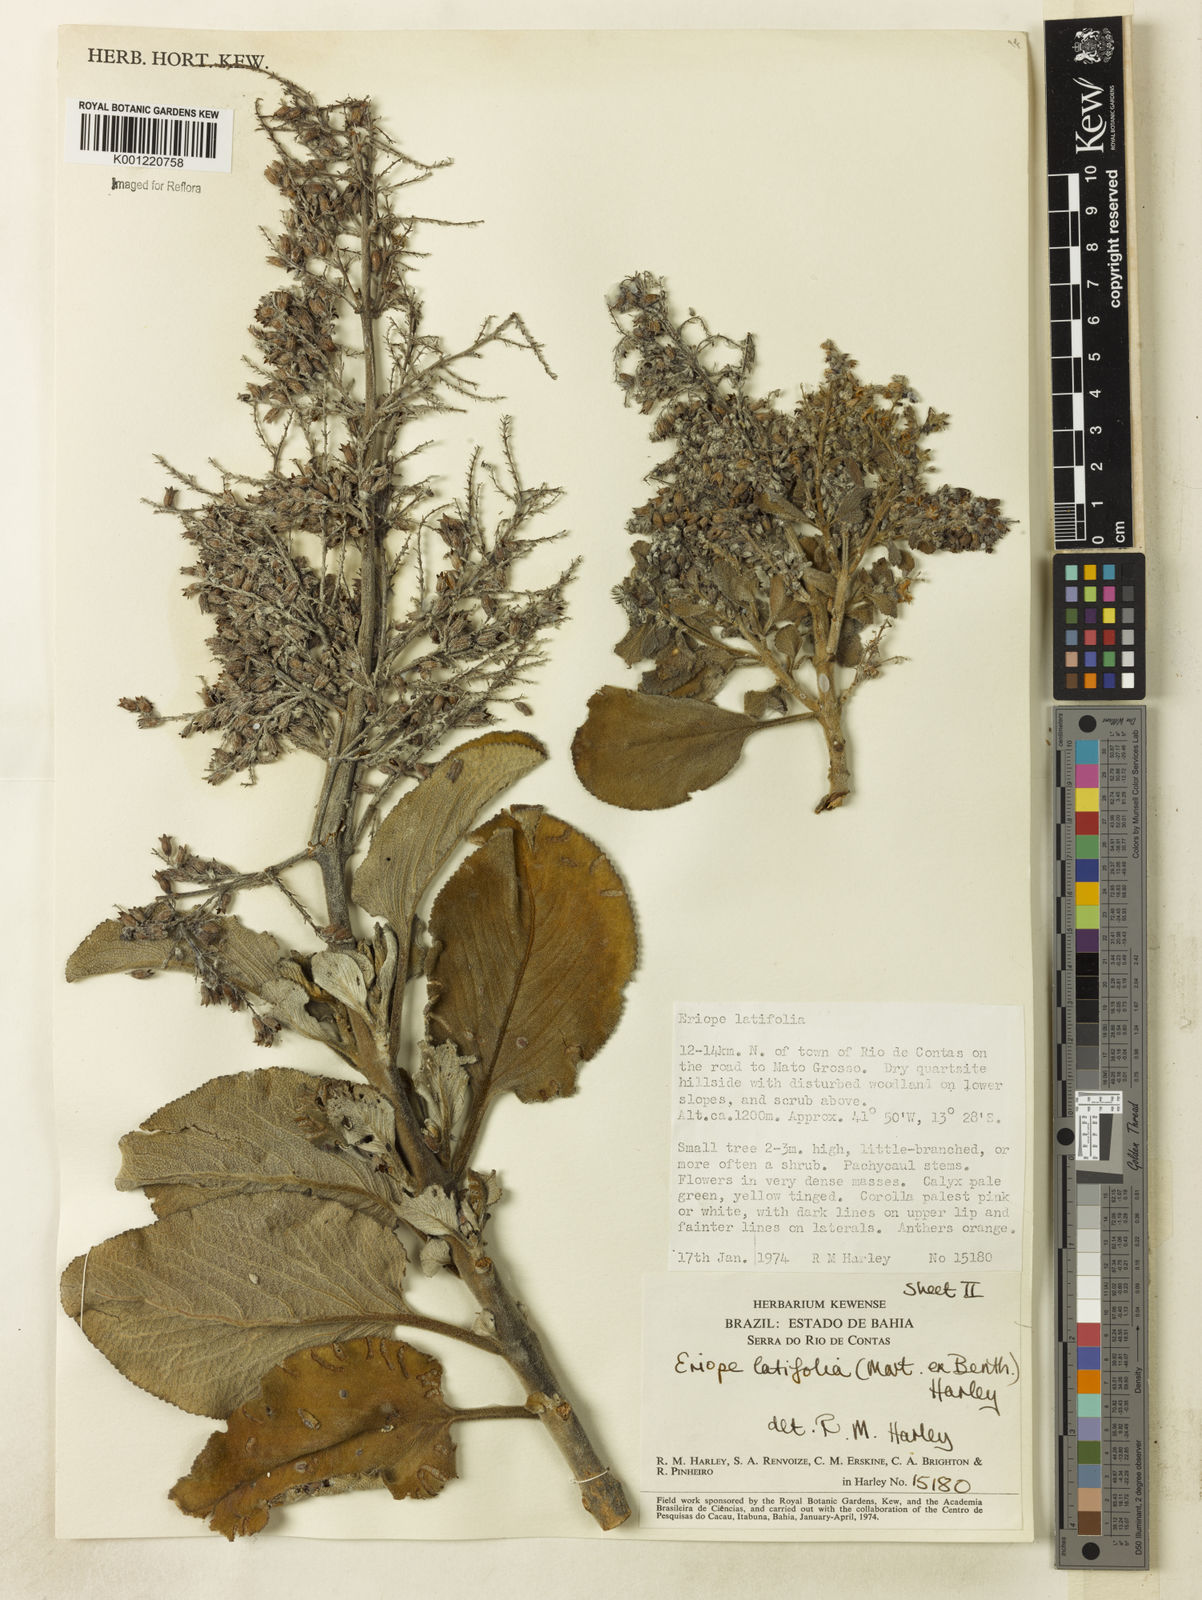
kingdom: Plantae
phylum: Tracheophyta
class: Magnoliopsida
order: Lamiales
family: Lamiaceae
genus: Eriope
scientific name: Eriope latifolia
